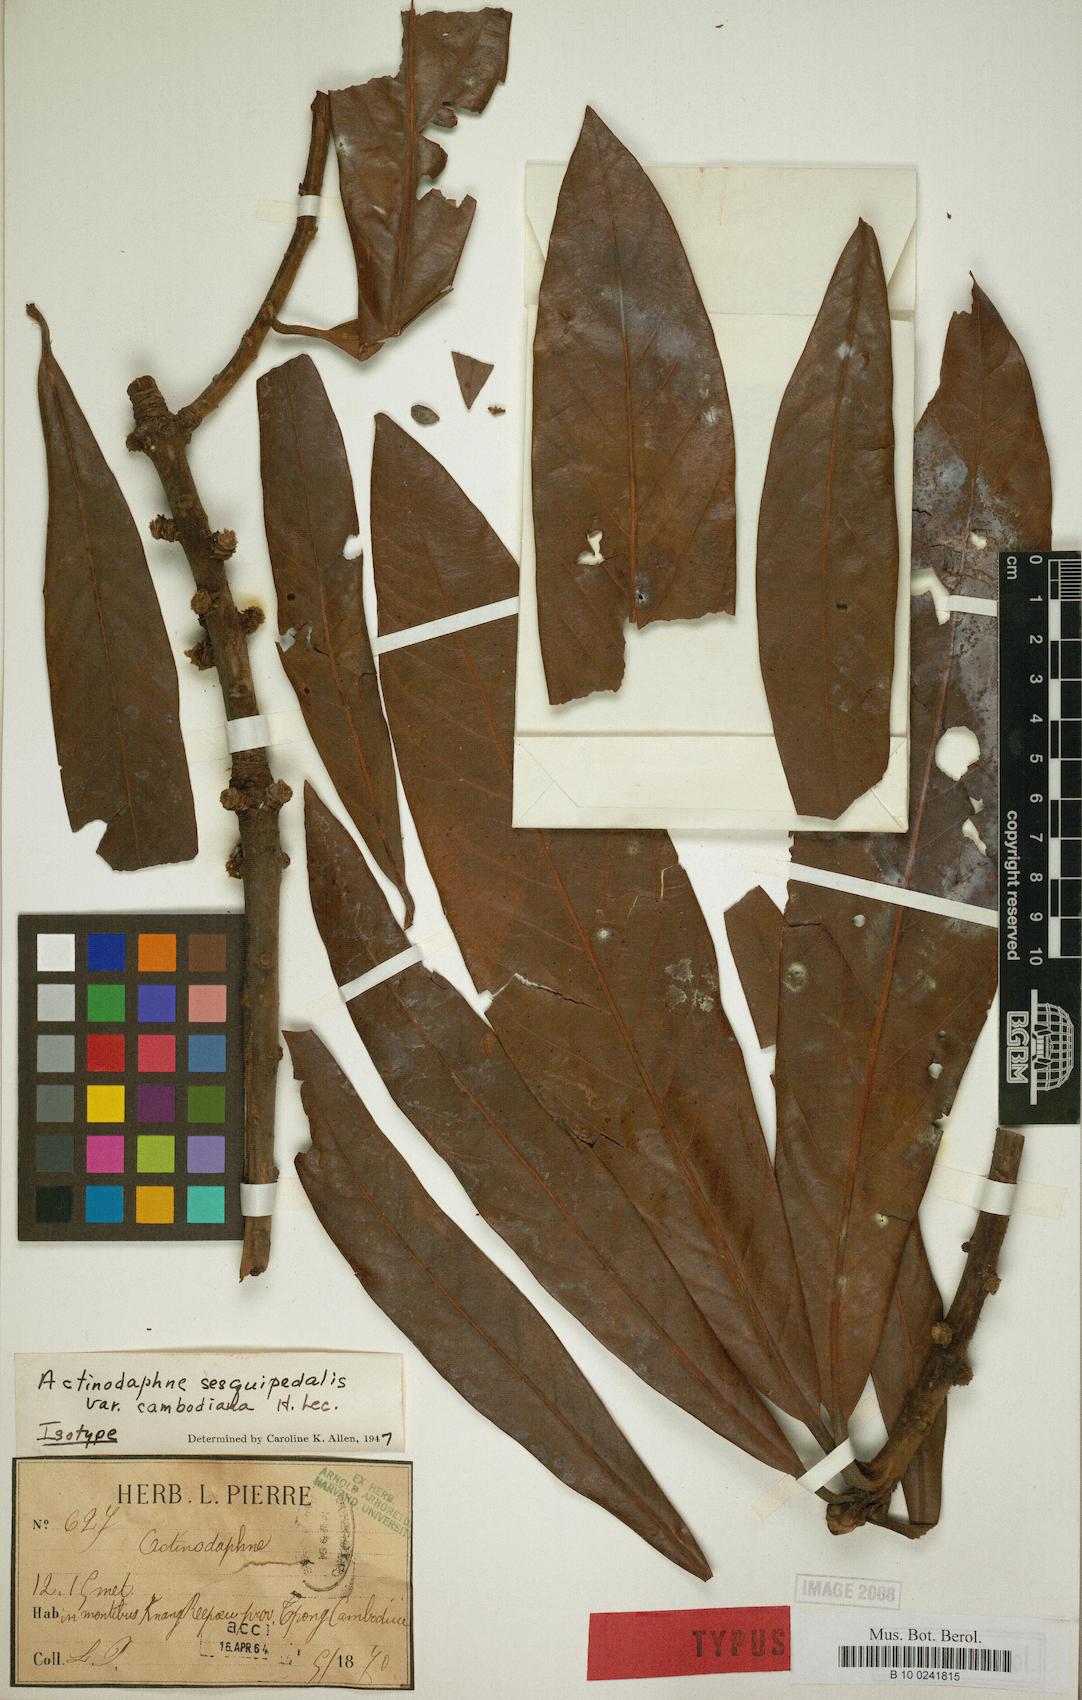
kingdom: Plantae
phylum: Tracheophyta
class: Magnoliopsida
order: Laurales
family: Lauraceae
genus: Actinodaphne
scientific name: Actinodaphne sesquipedalis
